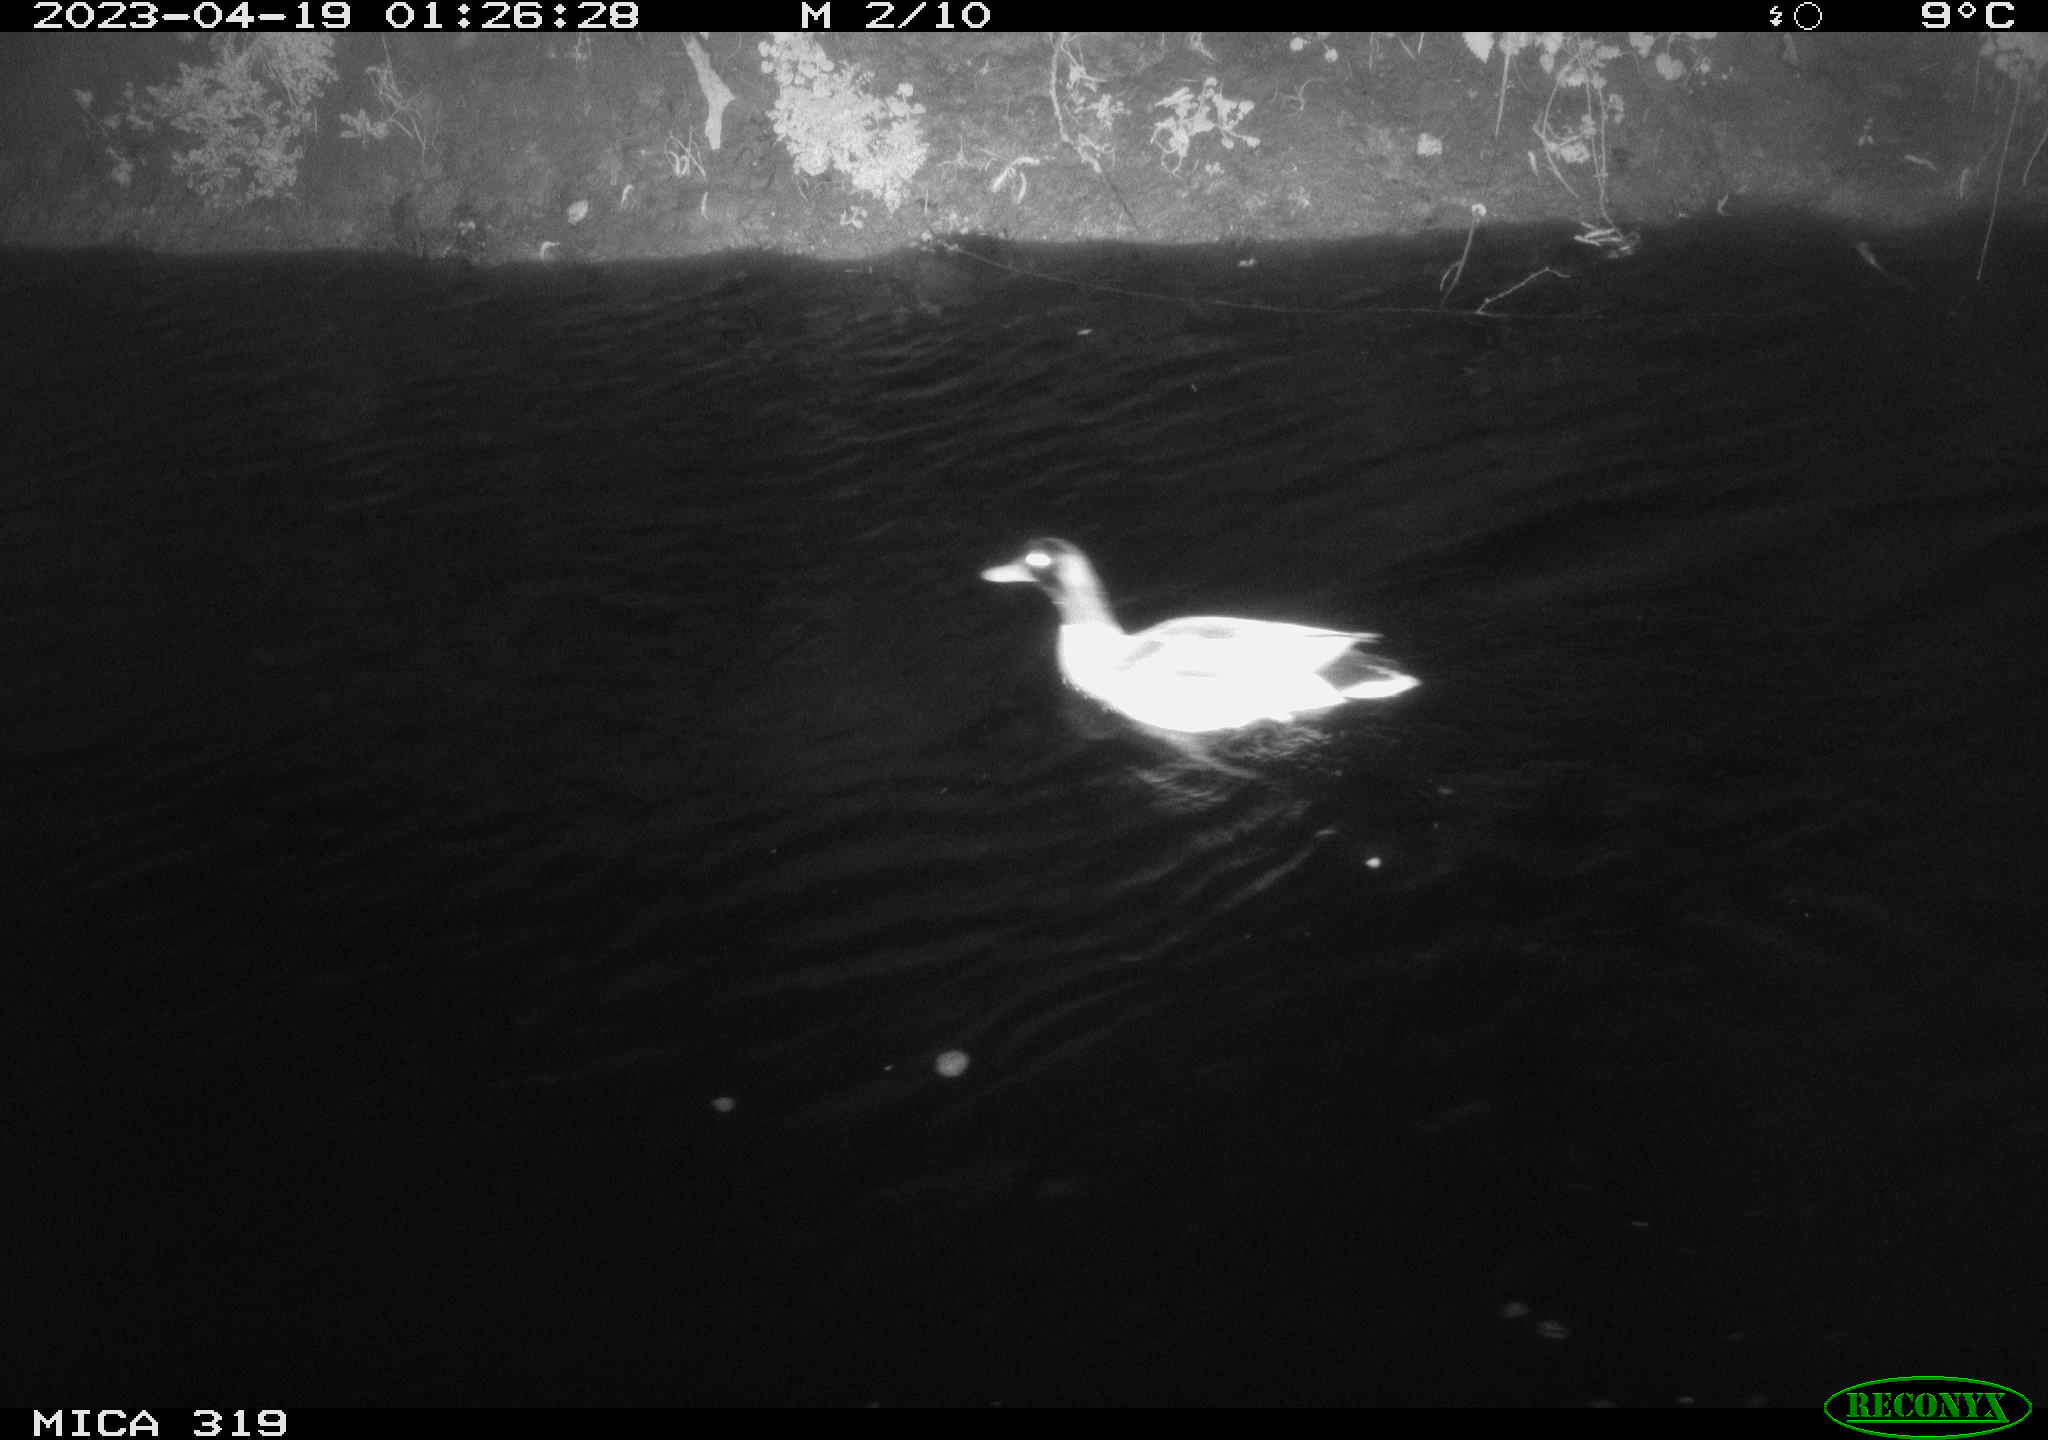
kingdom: Animalia
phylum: Chordata
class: Aves
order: Anseriformes
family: Anatidae
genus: Anas
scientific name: Anas
